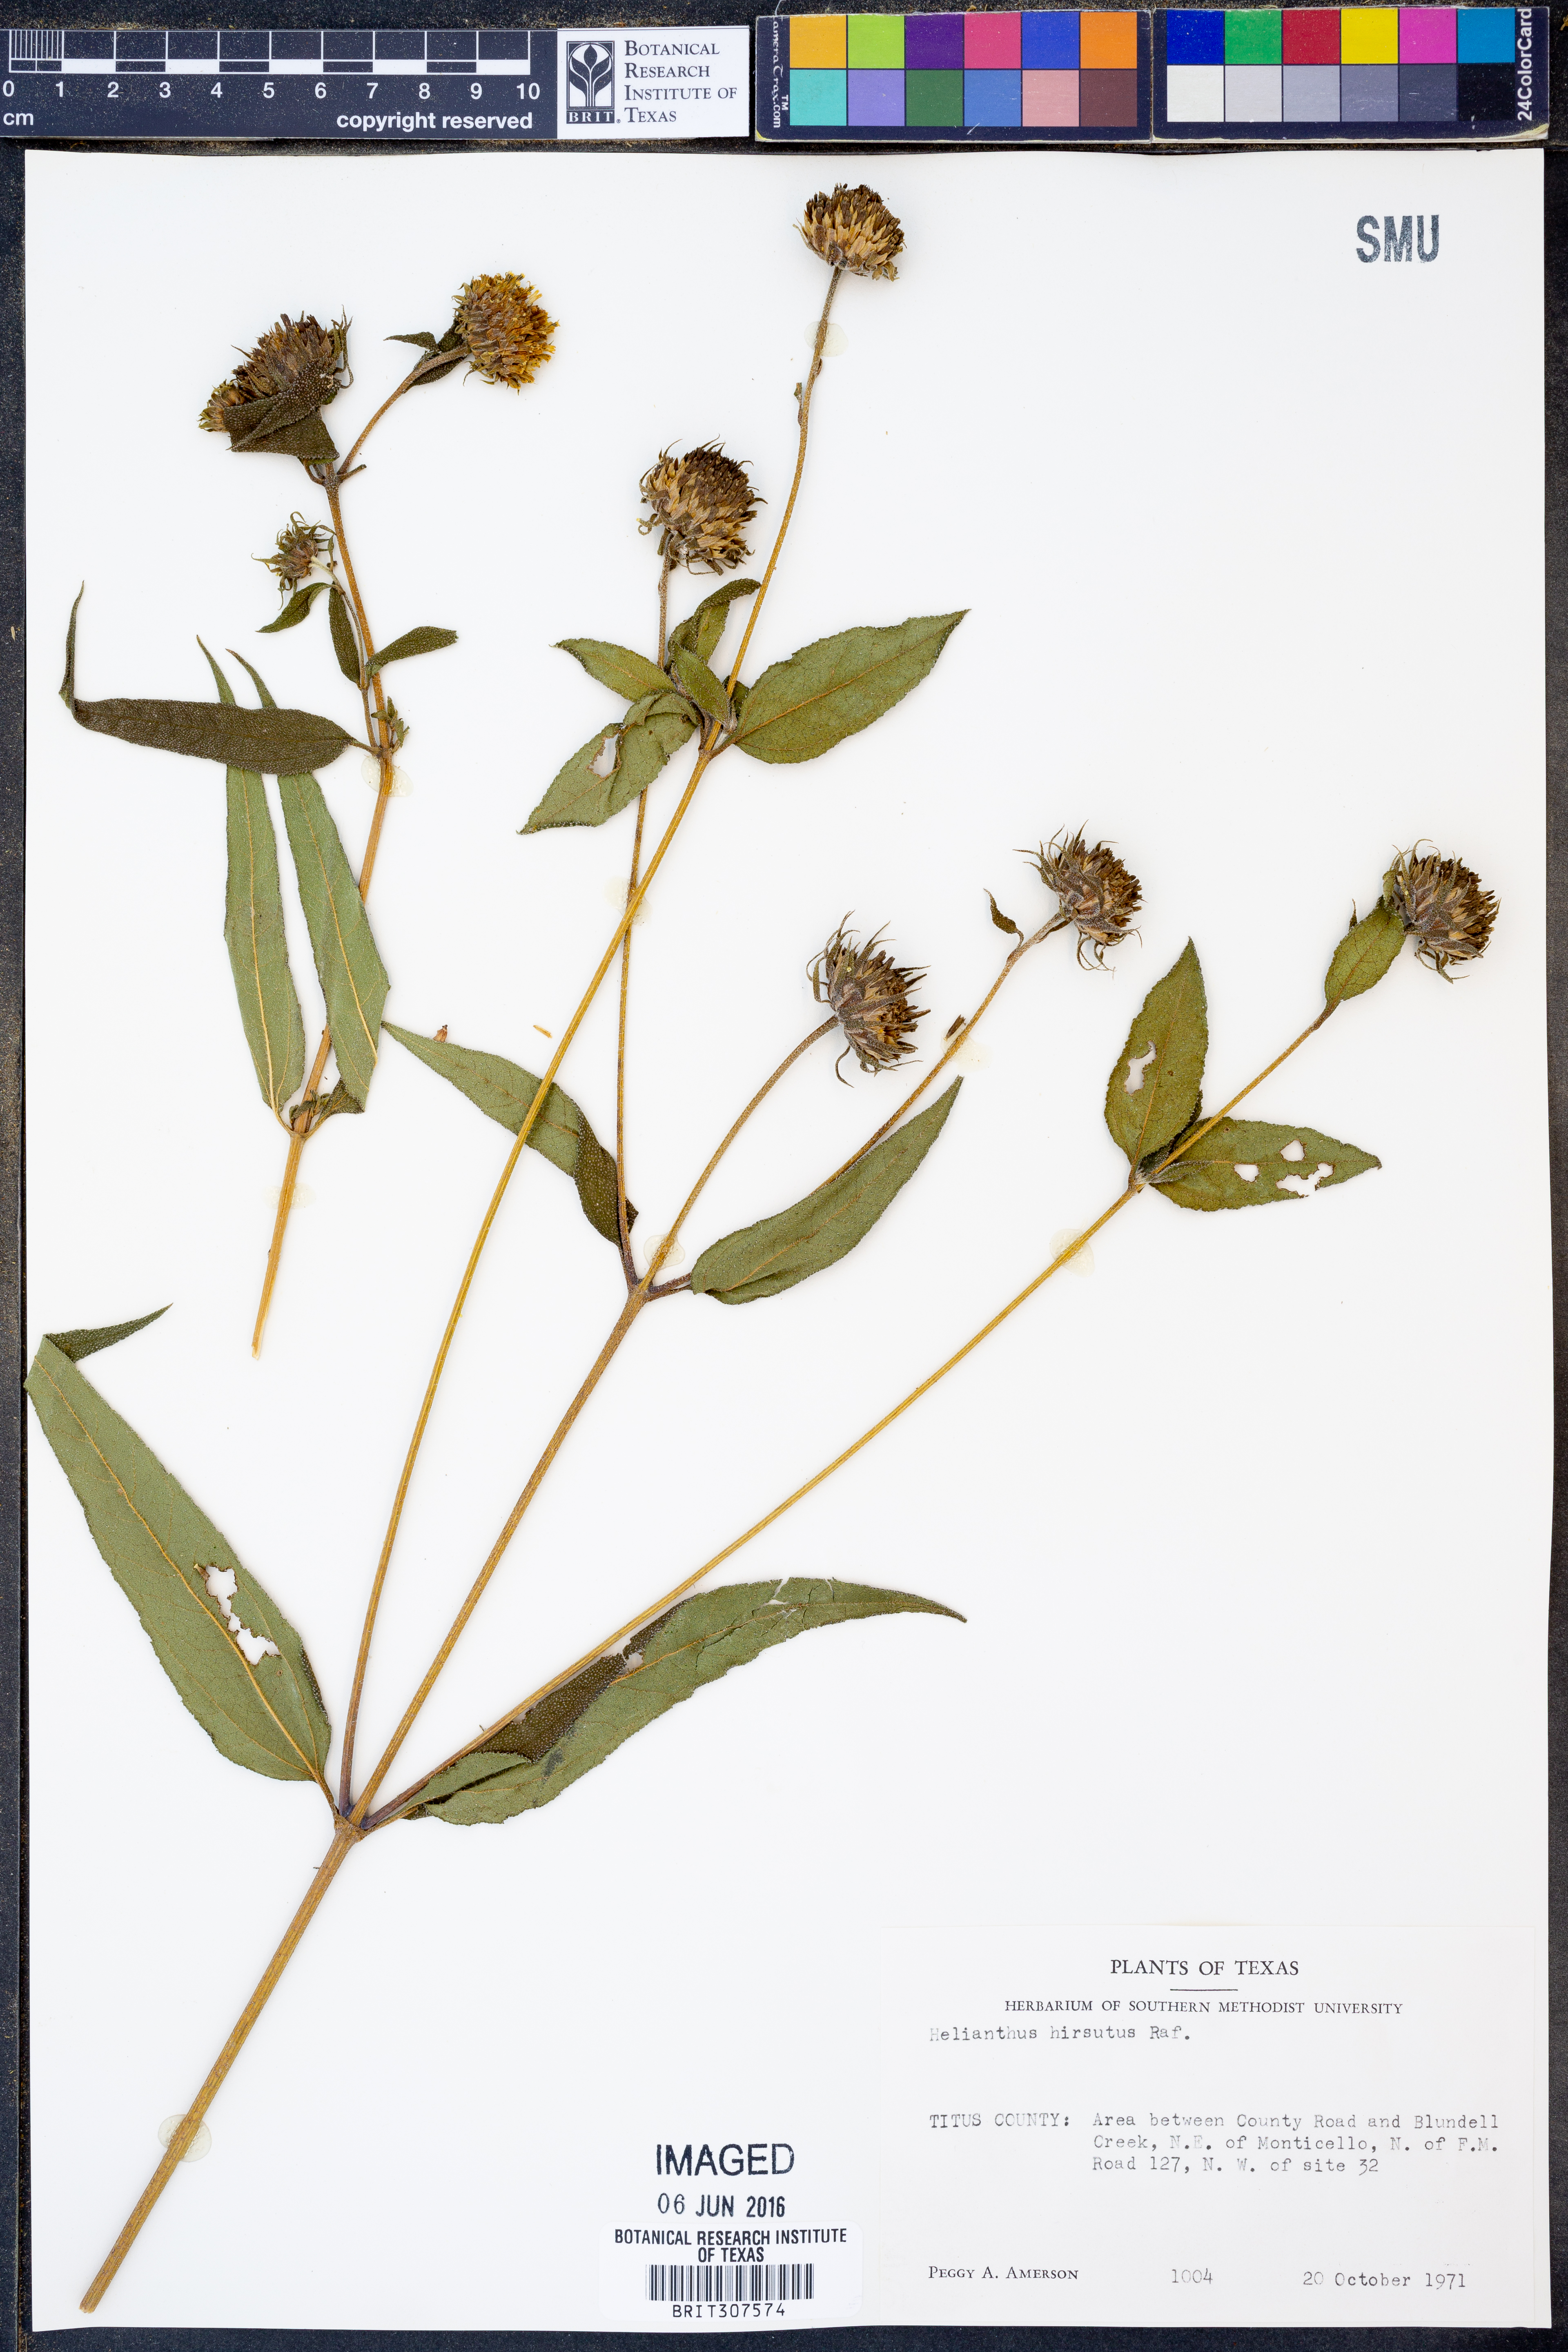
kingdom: Plantae
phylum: Tracheophyta
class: Magnoliopsida
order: Asterales
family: Asteraceae
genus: Helianthus
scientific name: Helianthus hirsutus
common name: Hairy sunflower
